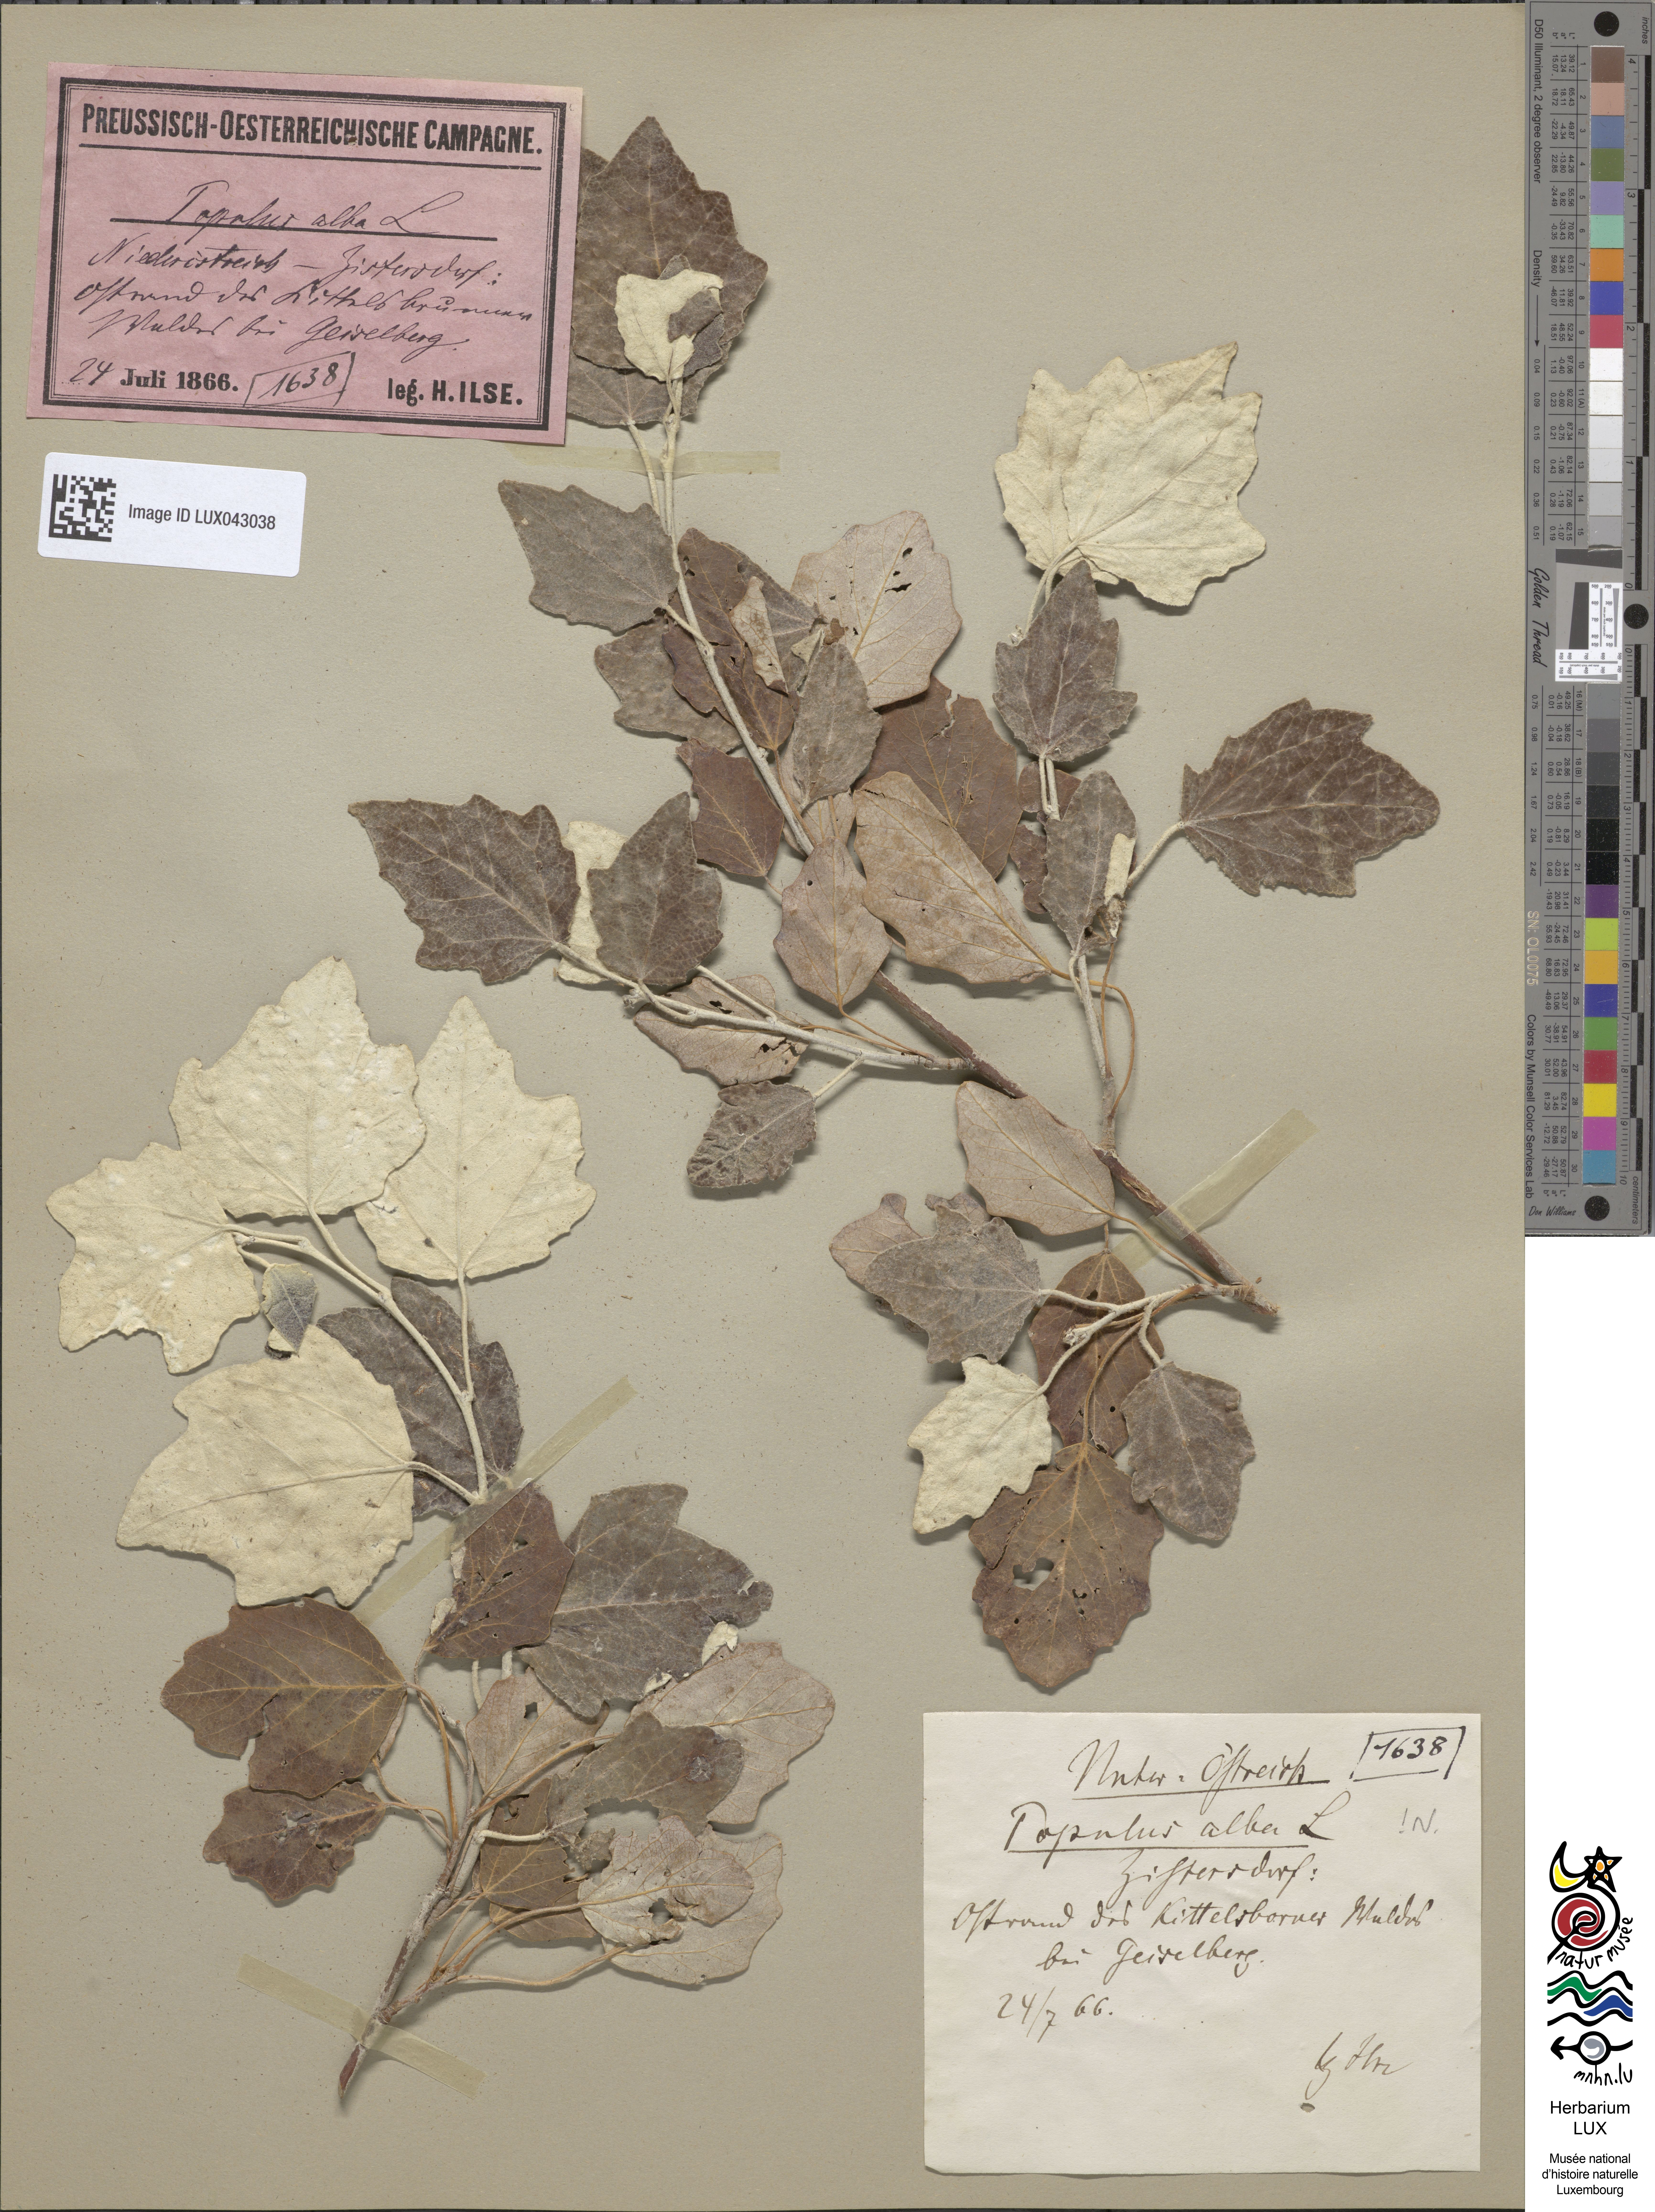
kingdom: Plantae
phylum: Tracheophyta
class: Magnoliopsida
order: Malpighiales
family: Salicaceae
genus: Populus
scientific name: Populus alba
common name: White poplar
